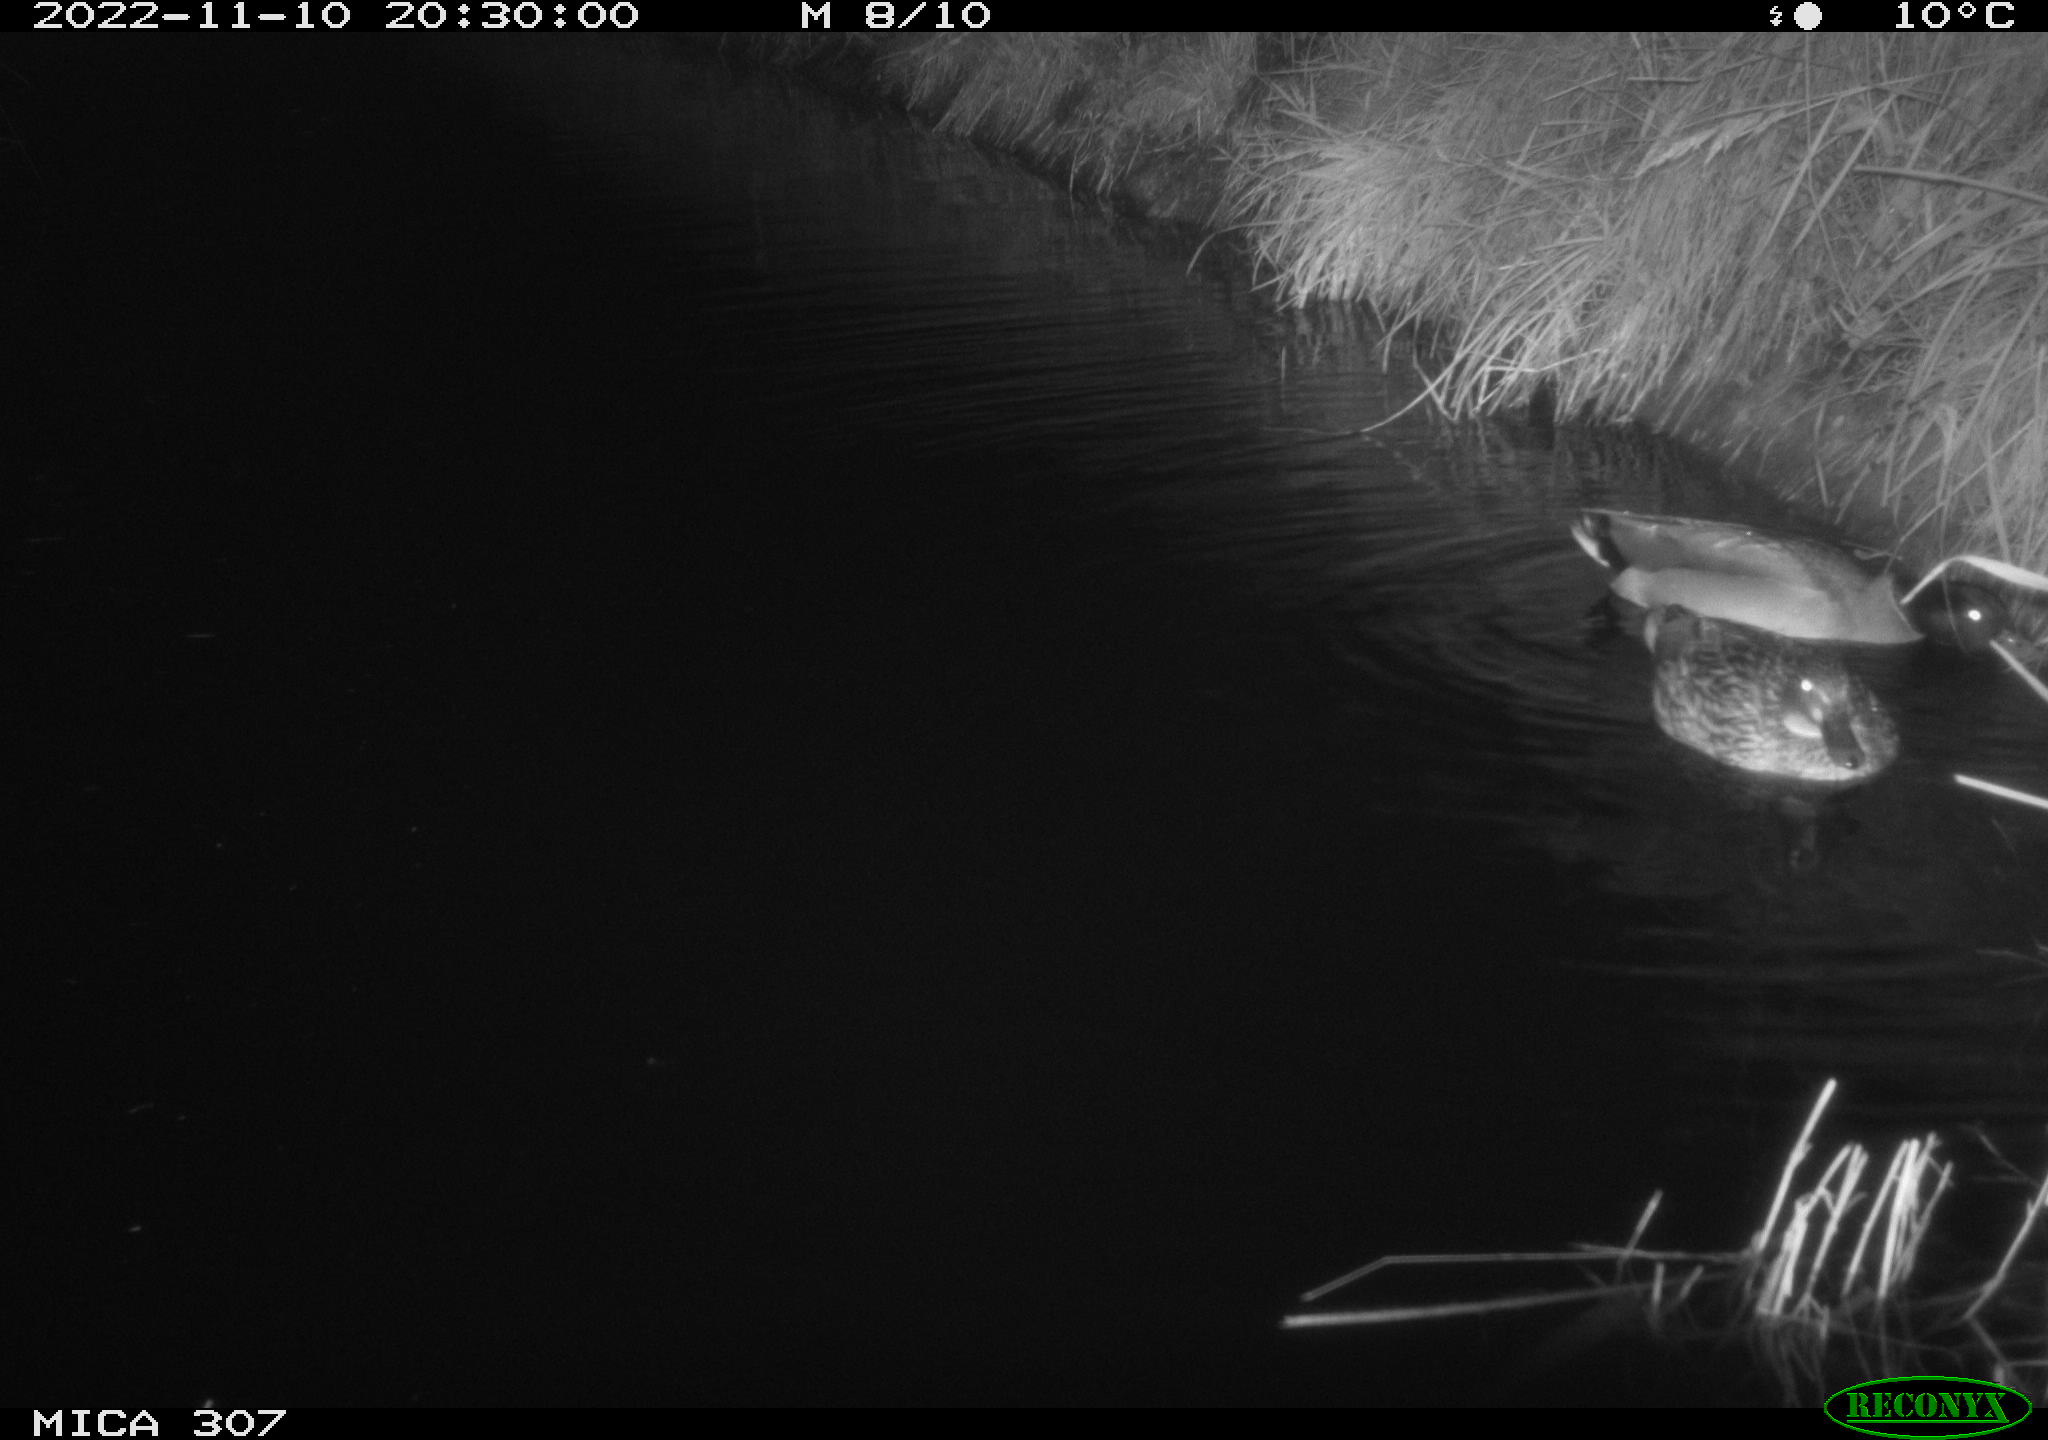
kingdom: Animalia
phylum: Chordata
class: Aves
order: Anseriformes
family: Anatidae
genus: Anas
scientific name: Anas
